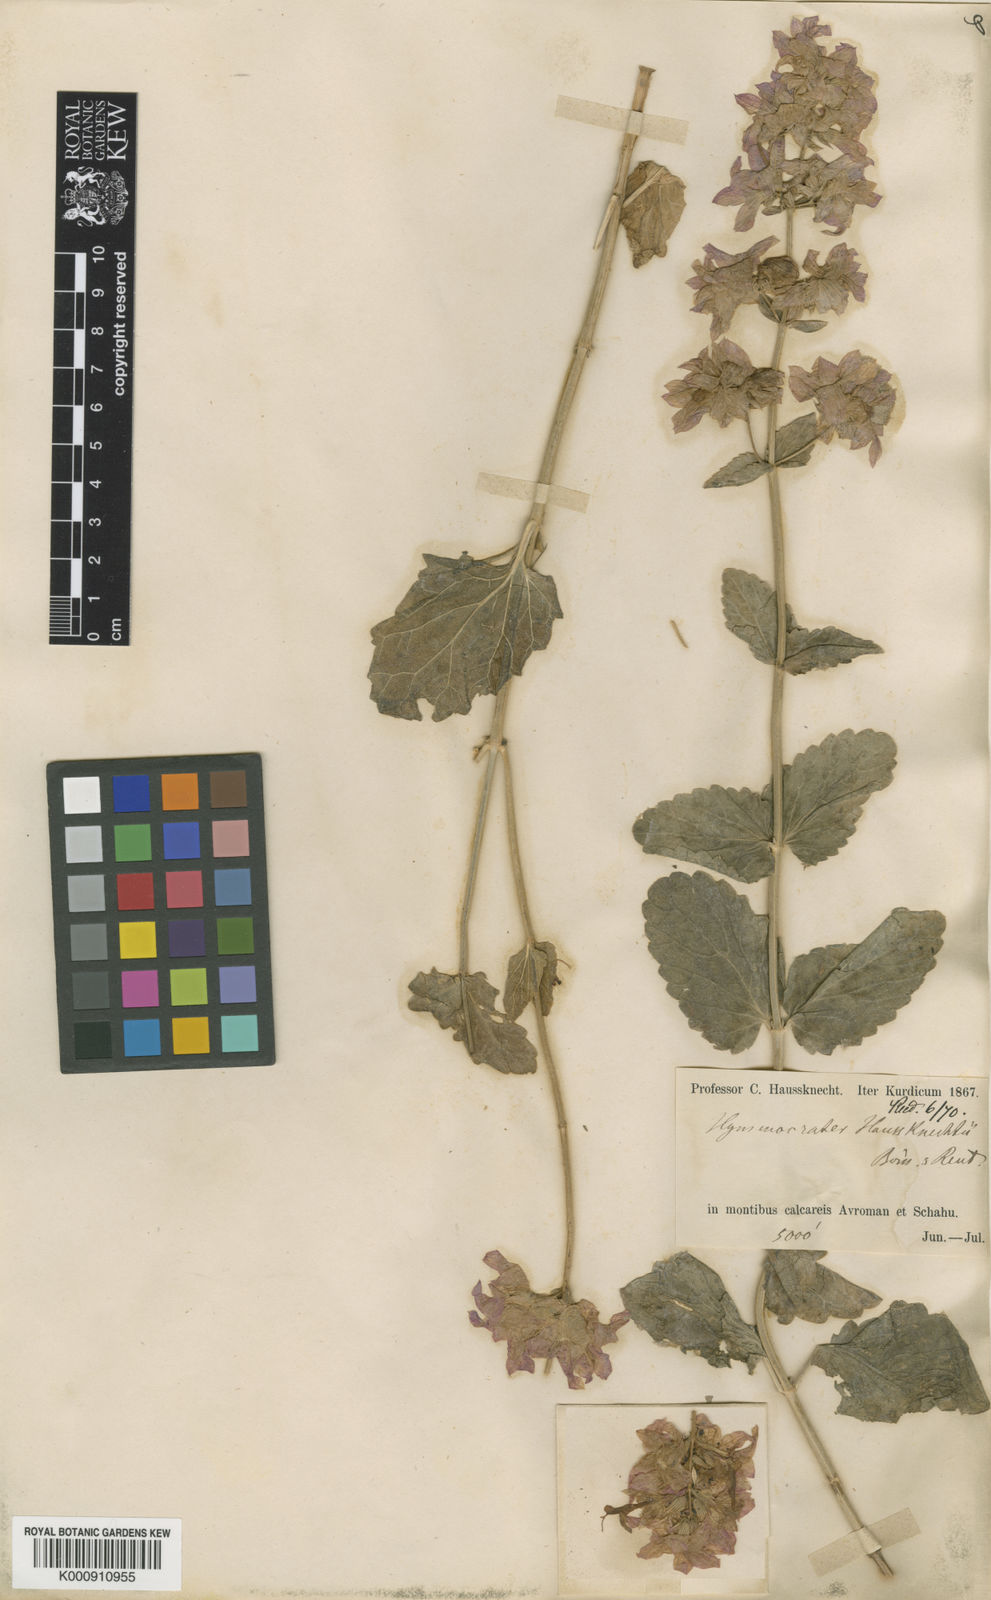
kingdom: Plantae
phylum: Tracheophyta
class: Magnoliopsida
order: Lamiales
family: Lamiaceae
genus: Nepeta
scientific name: Nepeta avromanica
